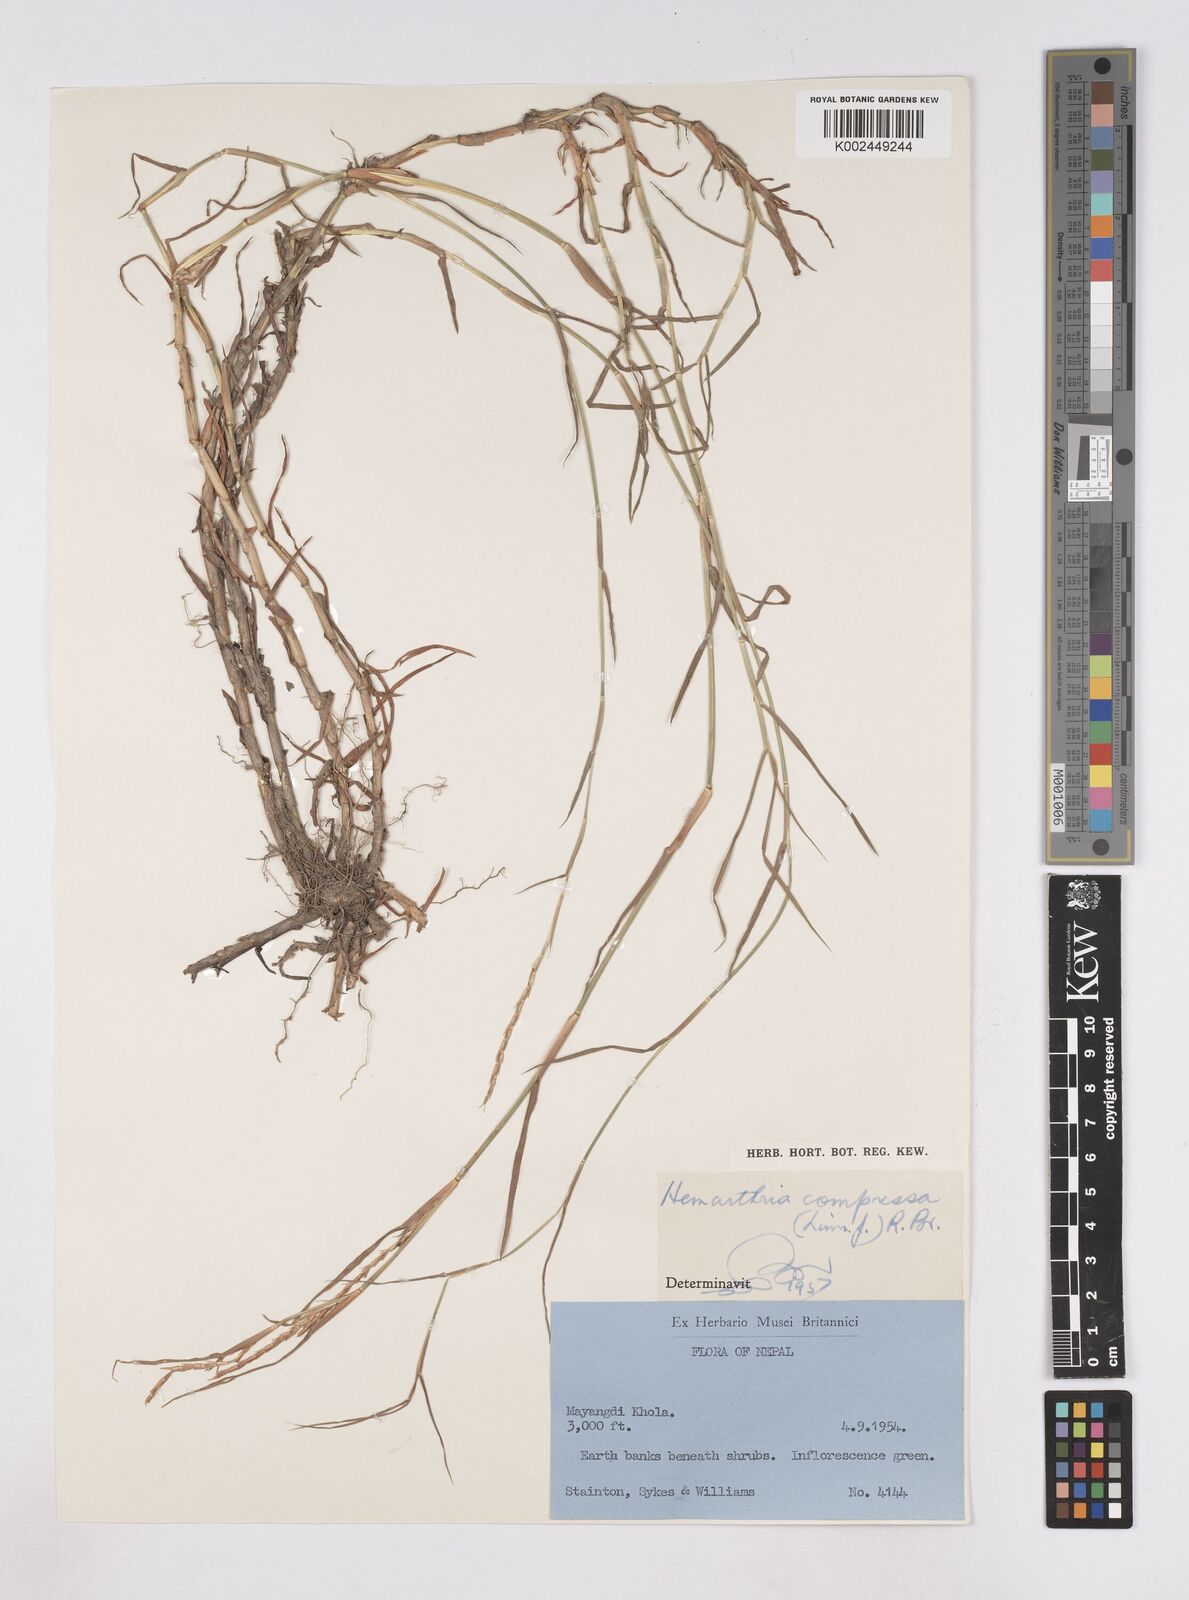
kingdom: Plantae
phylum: Tracheophyta
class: Liliopsida
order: Poales
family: Poaceae
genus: Hemarthria
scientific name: Hemarthria compressa
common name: Whip grass
